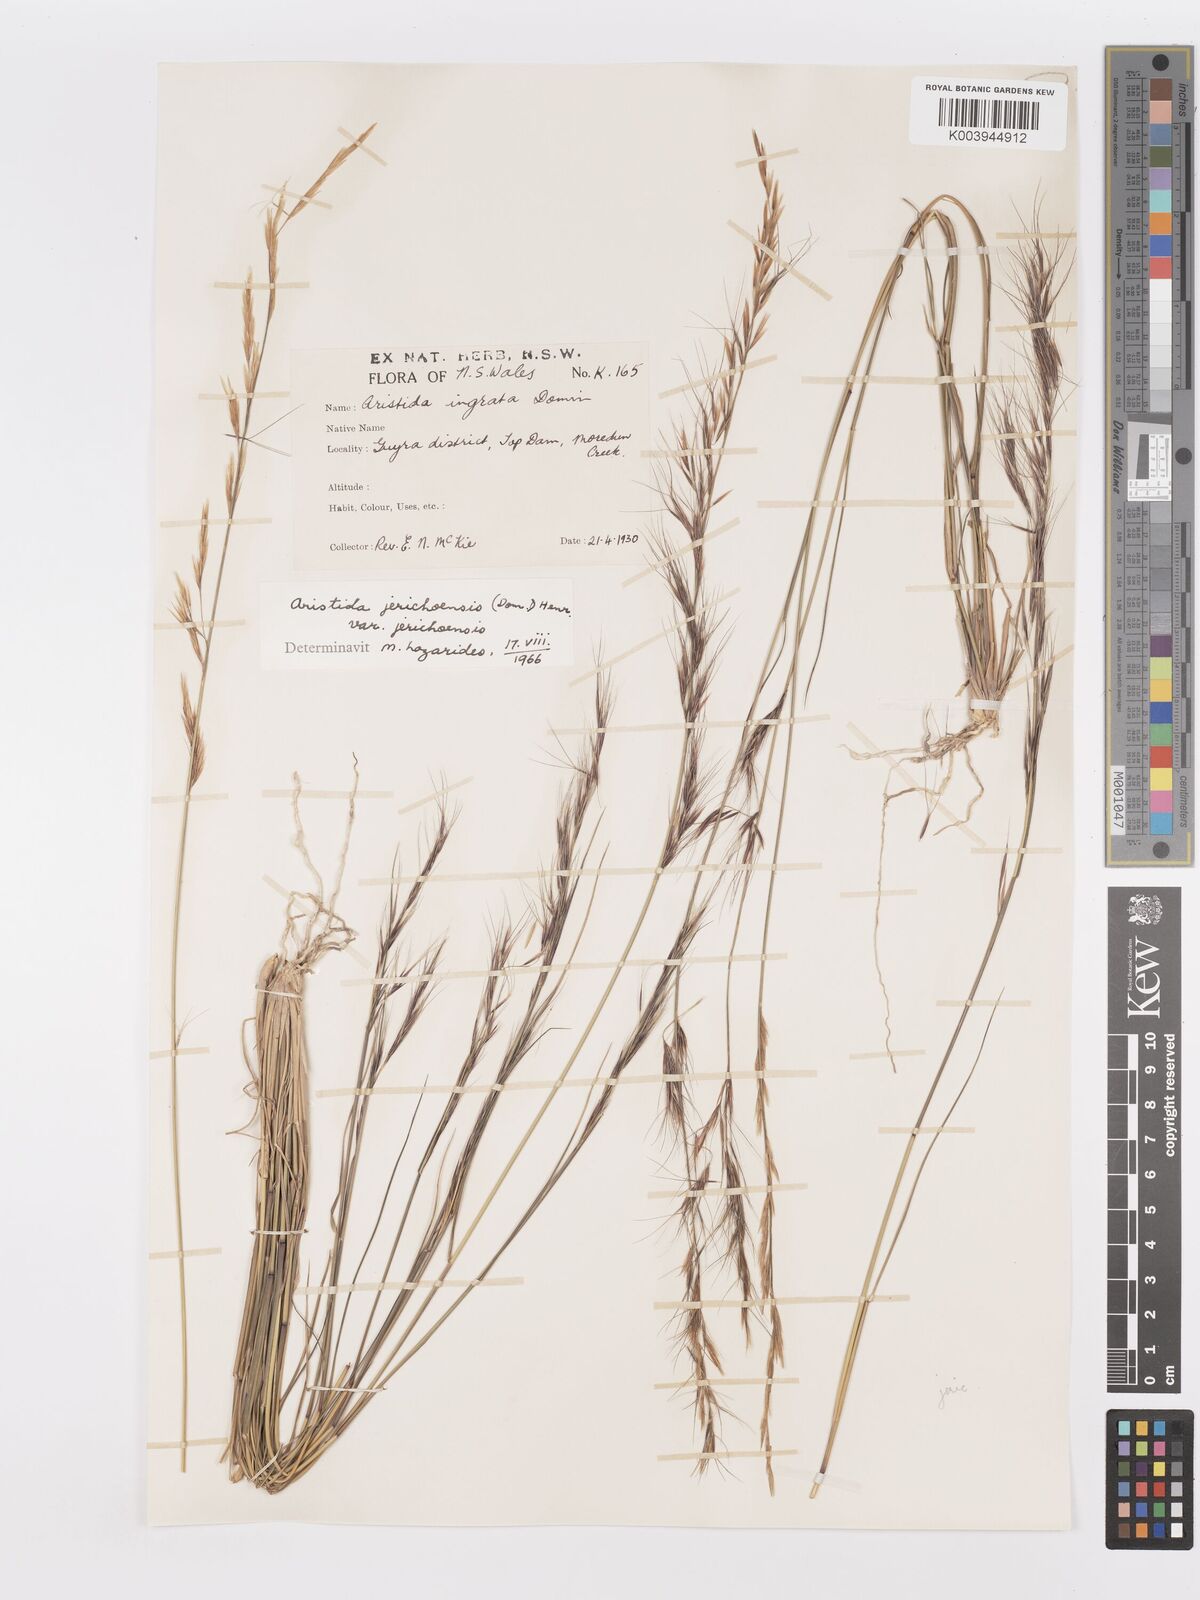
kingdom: Plantae
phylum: Tracheophyta
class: Liliopsida
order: Poales
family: Poaceae
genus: Aristida
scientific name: Aristida jerichoensis
